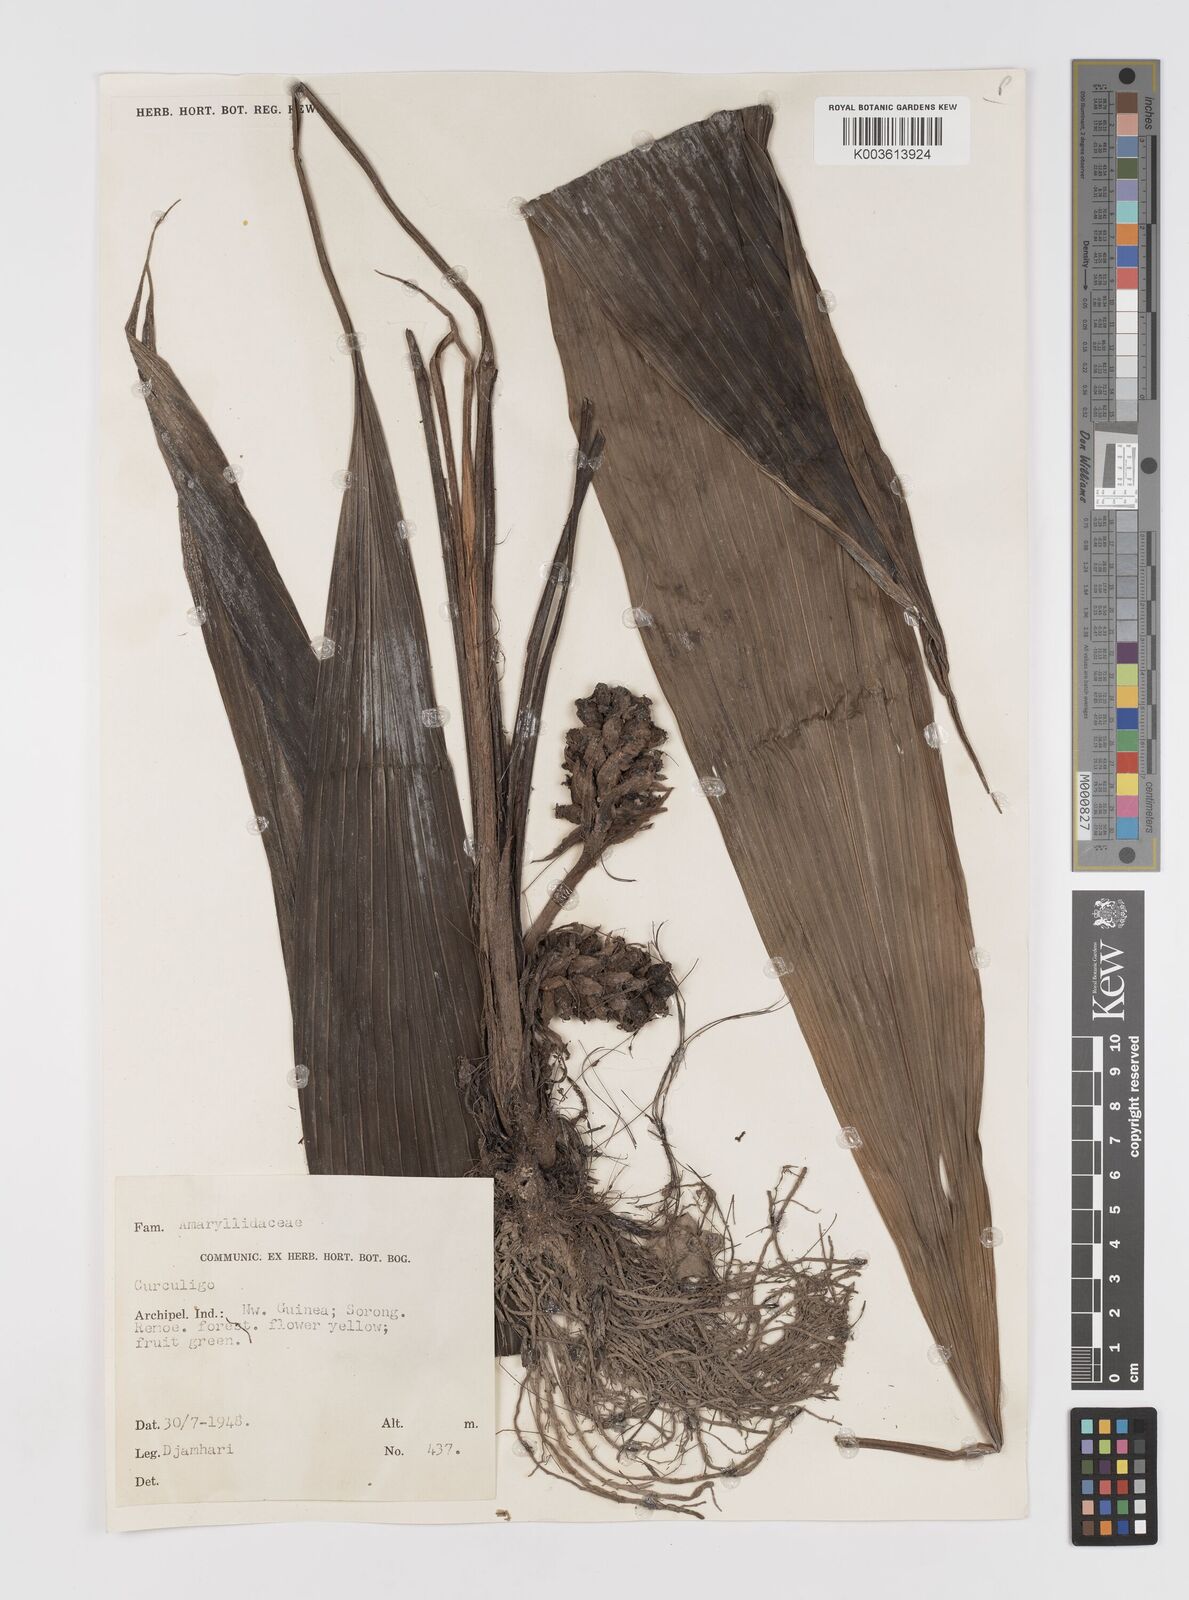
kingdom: Plantae
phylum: Tracheophyta
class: Liliopsida
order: Asparagales
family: Hypoxidaceae
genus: Curculigo
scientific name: Curculigo
